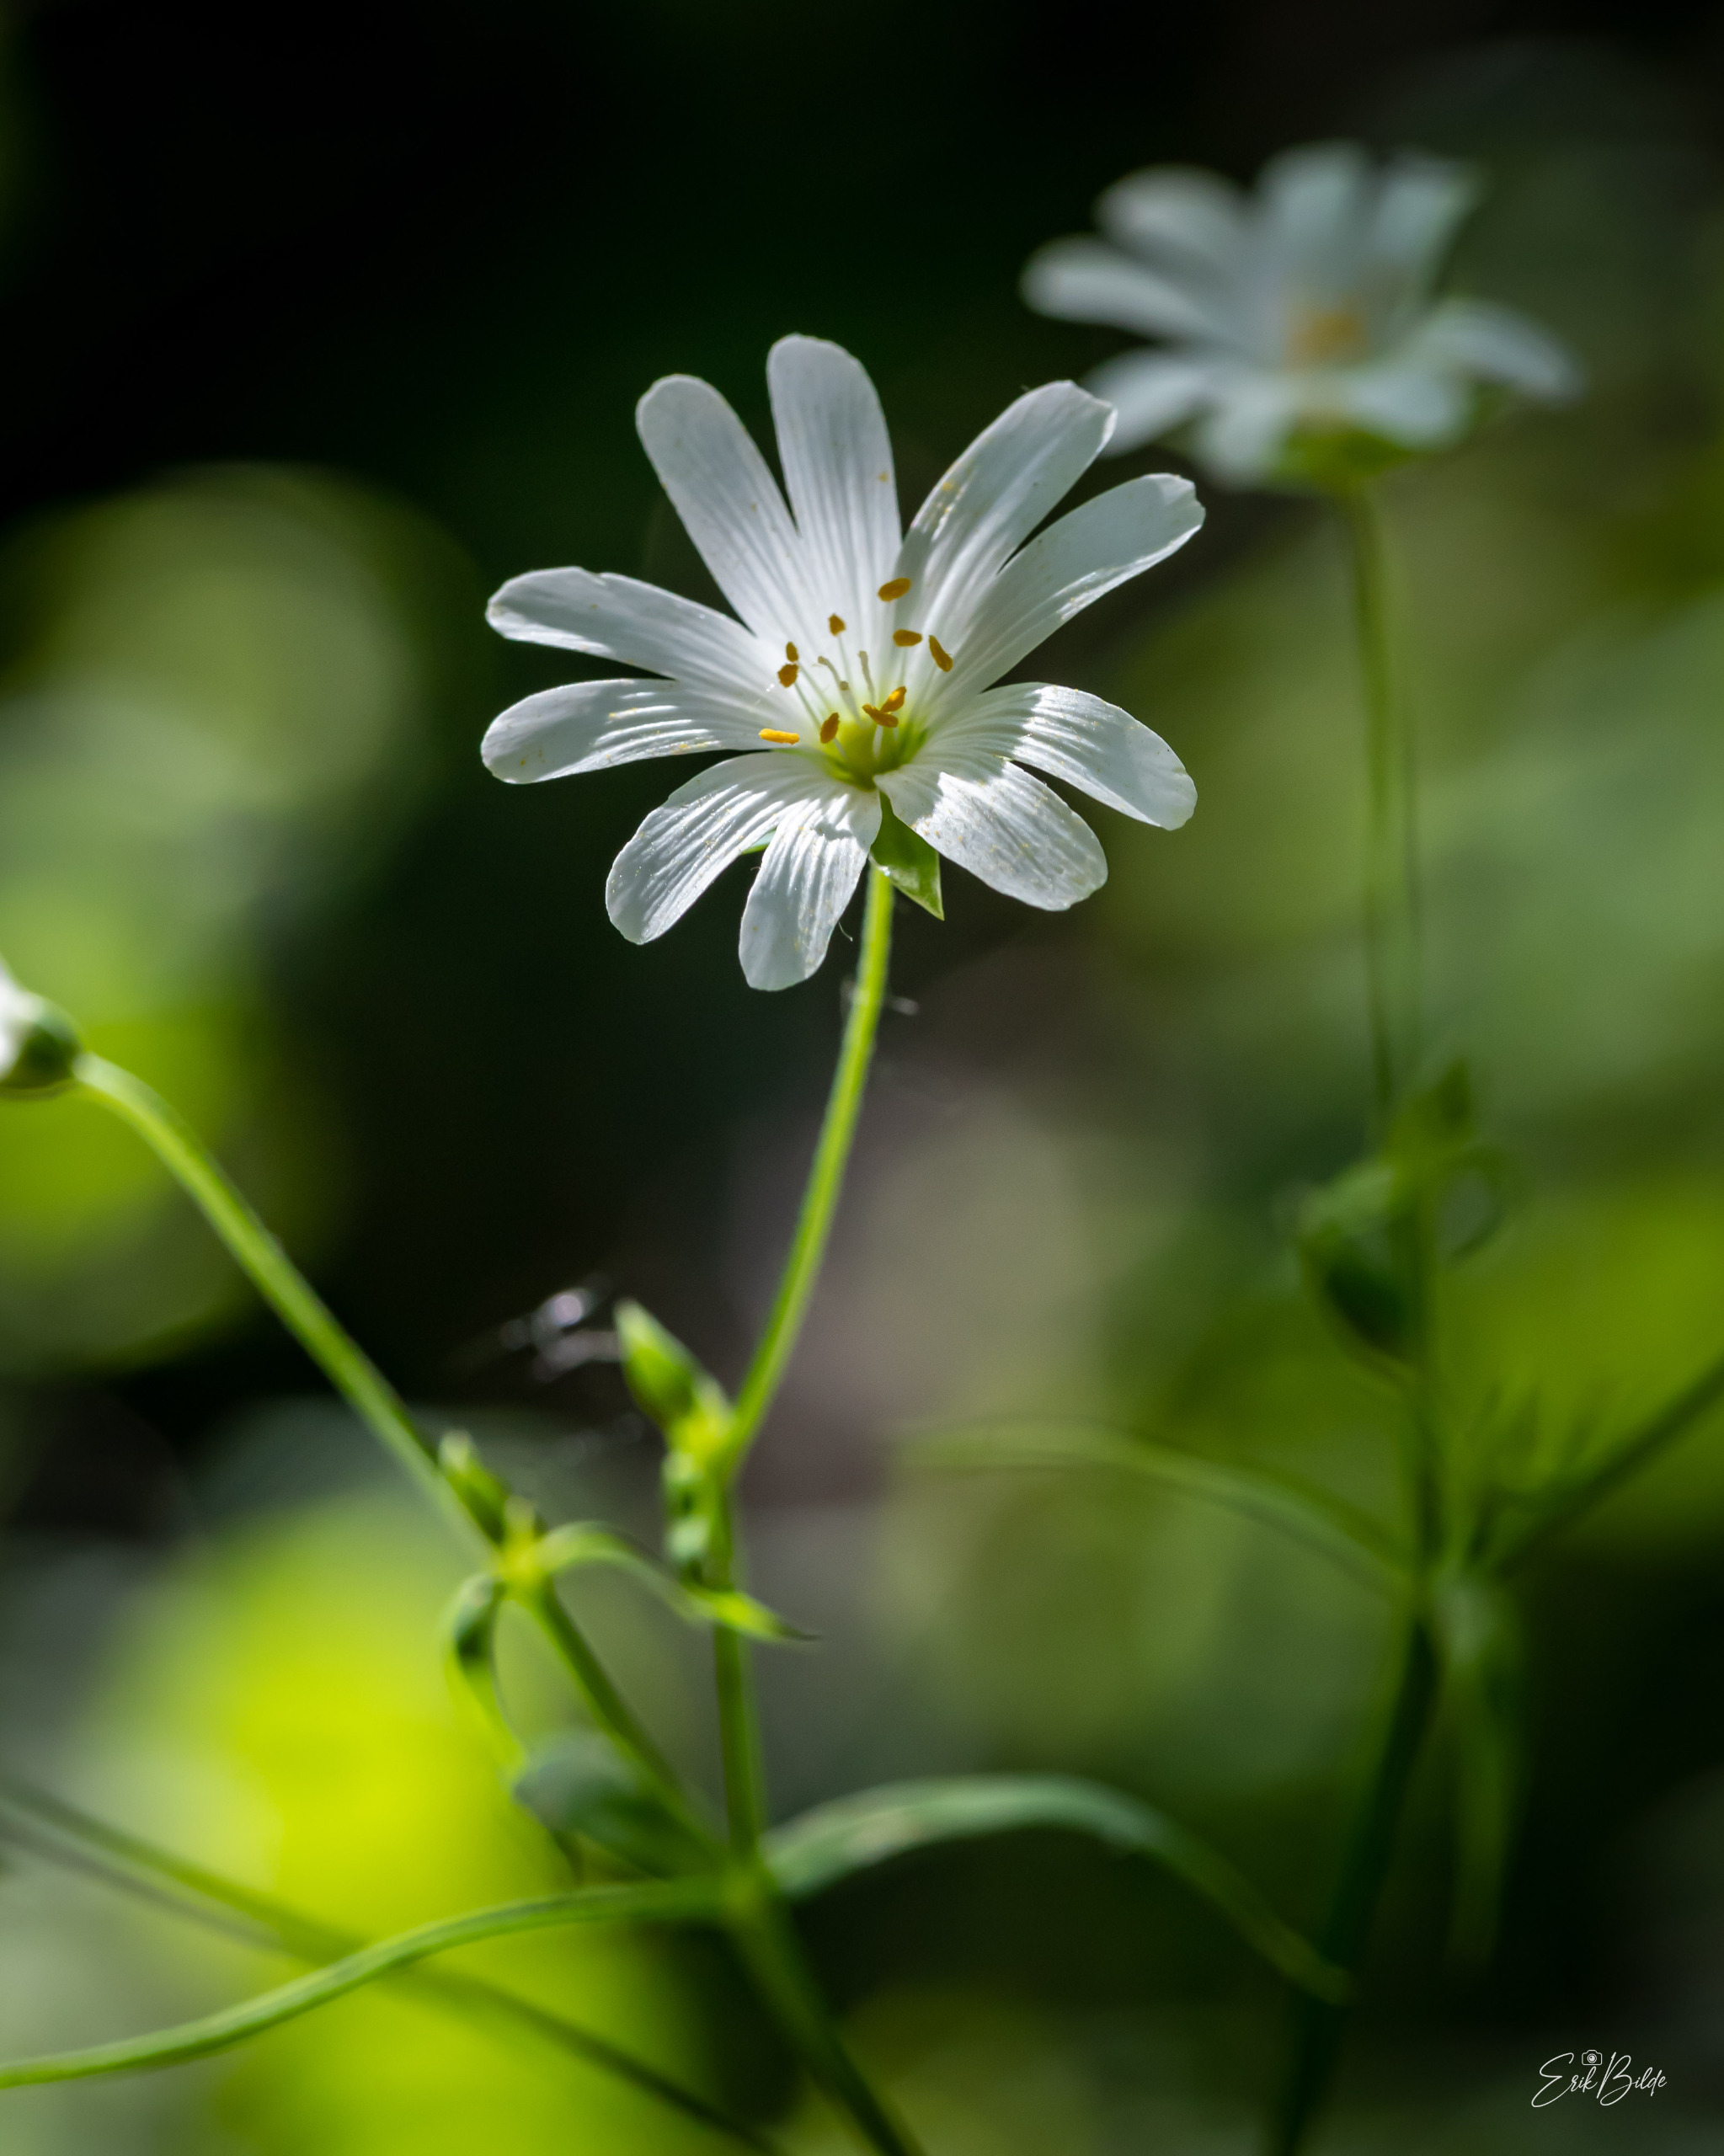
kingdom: Plantae
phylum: Tracheophyta
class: Magnoliopsida
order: Caryophyllales
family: Caryophyllaceae
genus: Rabelera
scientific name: Rabelera holostea
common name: Stor fladstjerne
